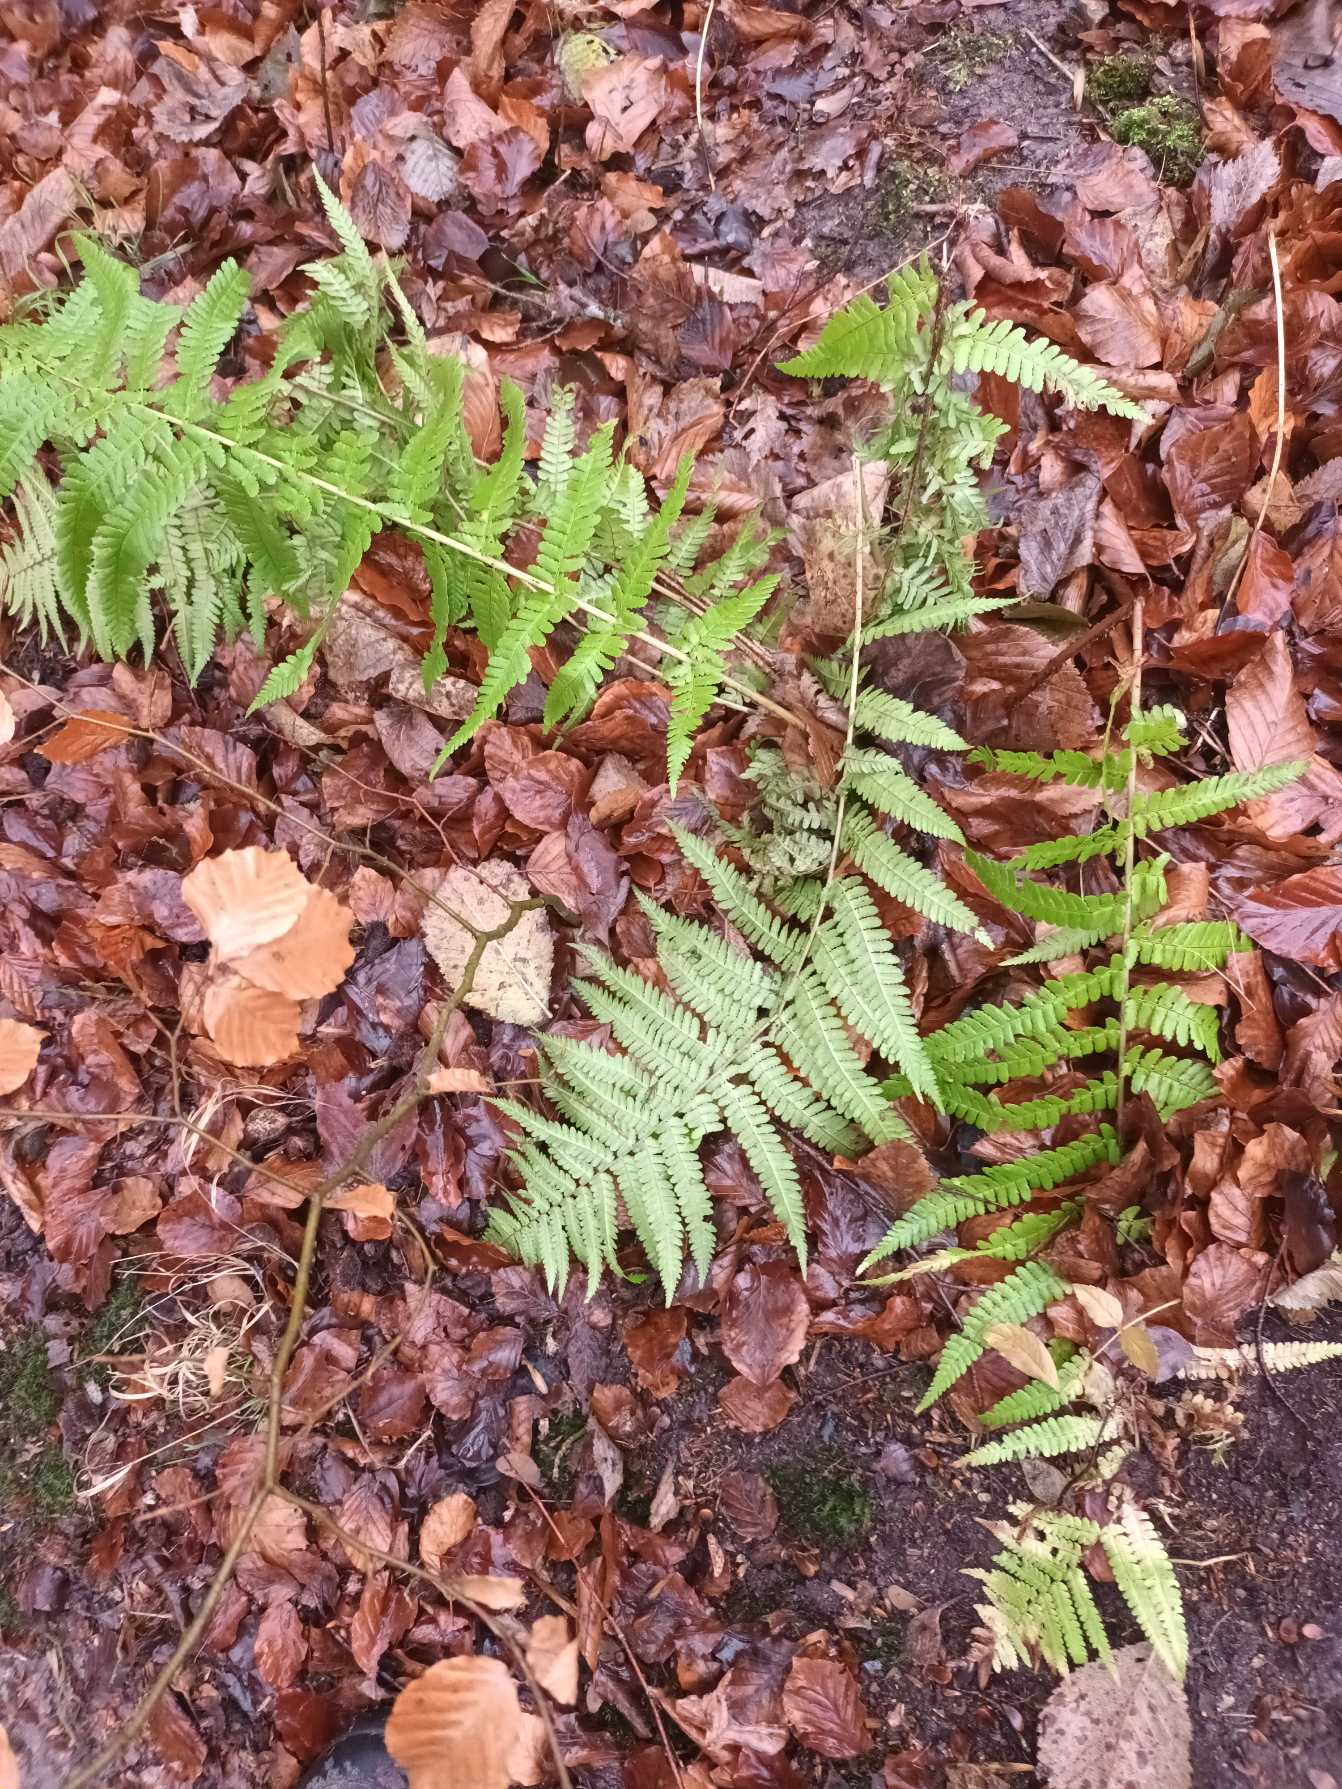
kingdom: Plantae
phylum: Tracheophyta
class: Polypodiopsida
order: Polypodiales
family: Dryopteridaceae
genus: Dryopteris
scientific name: Dryopteris filix-mas
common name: Almindelig mangeløv
